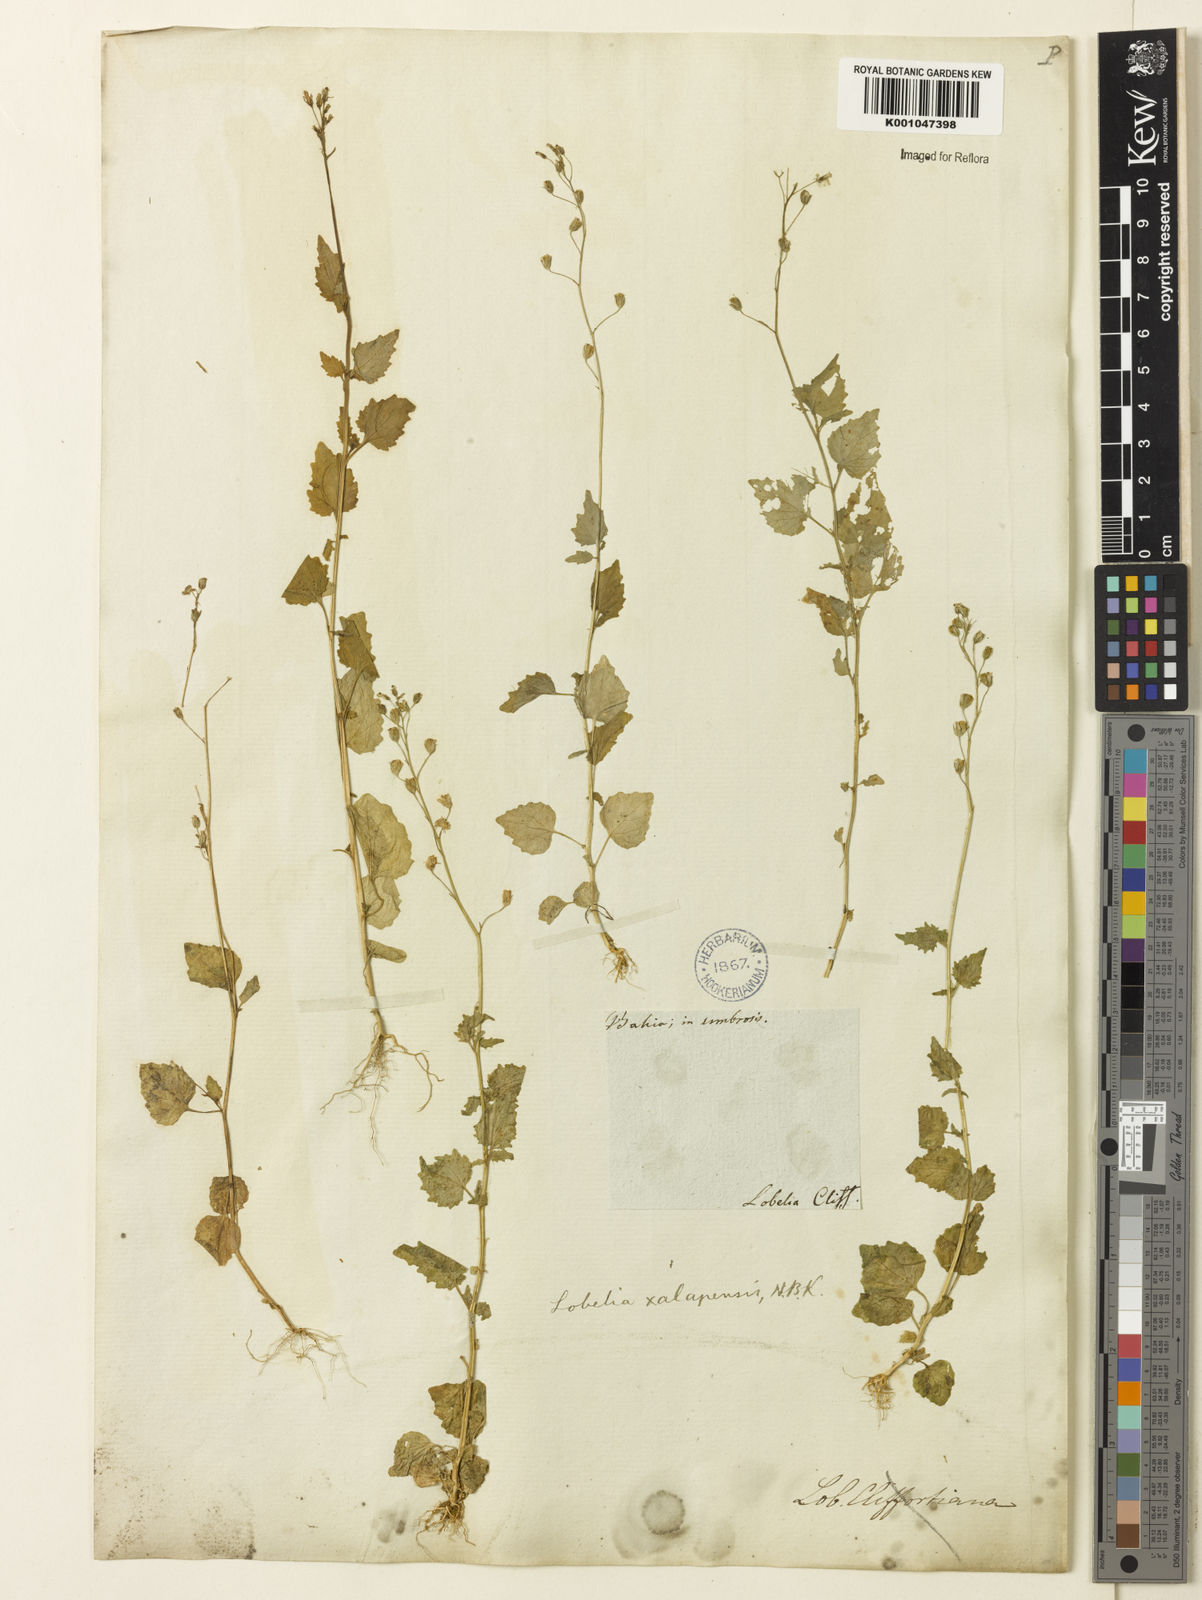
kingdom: Plantae
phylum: Tracheophyta
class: Magnoliopsida
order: Asterales
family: Campanulaceae
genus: Lobelia
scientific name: Lobelia xalapensis
